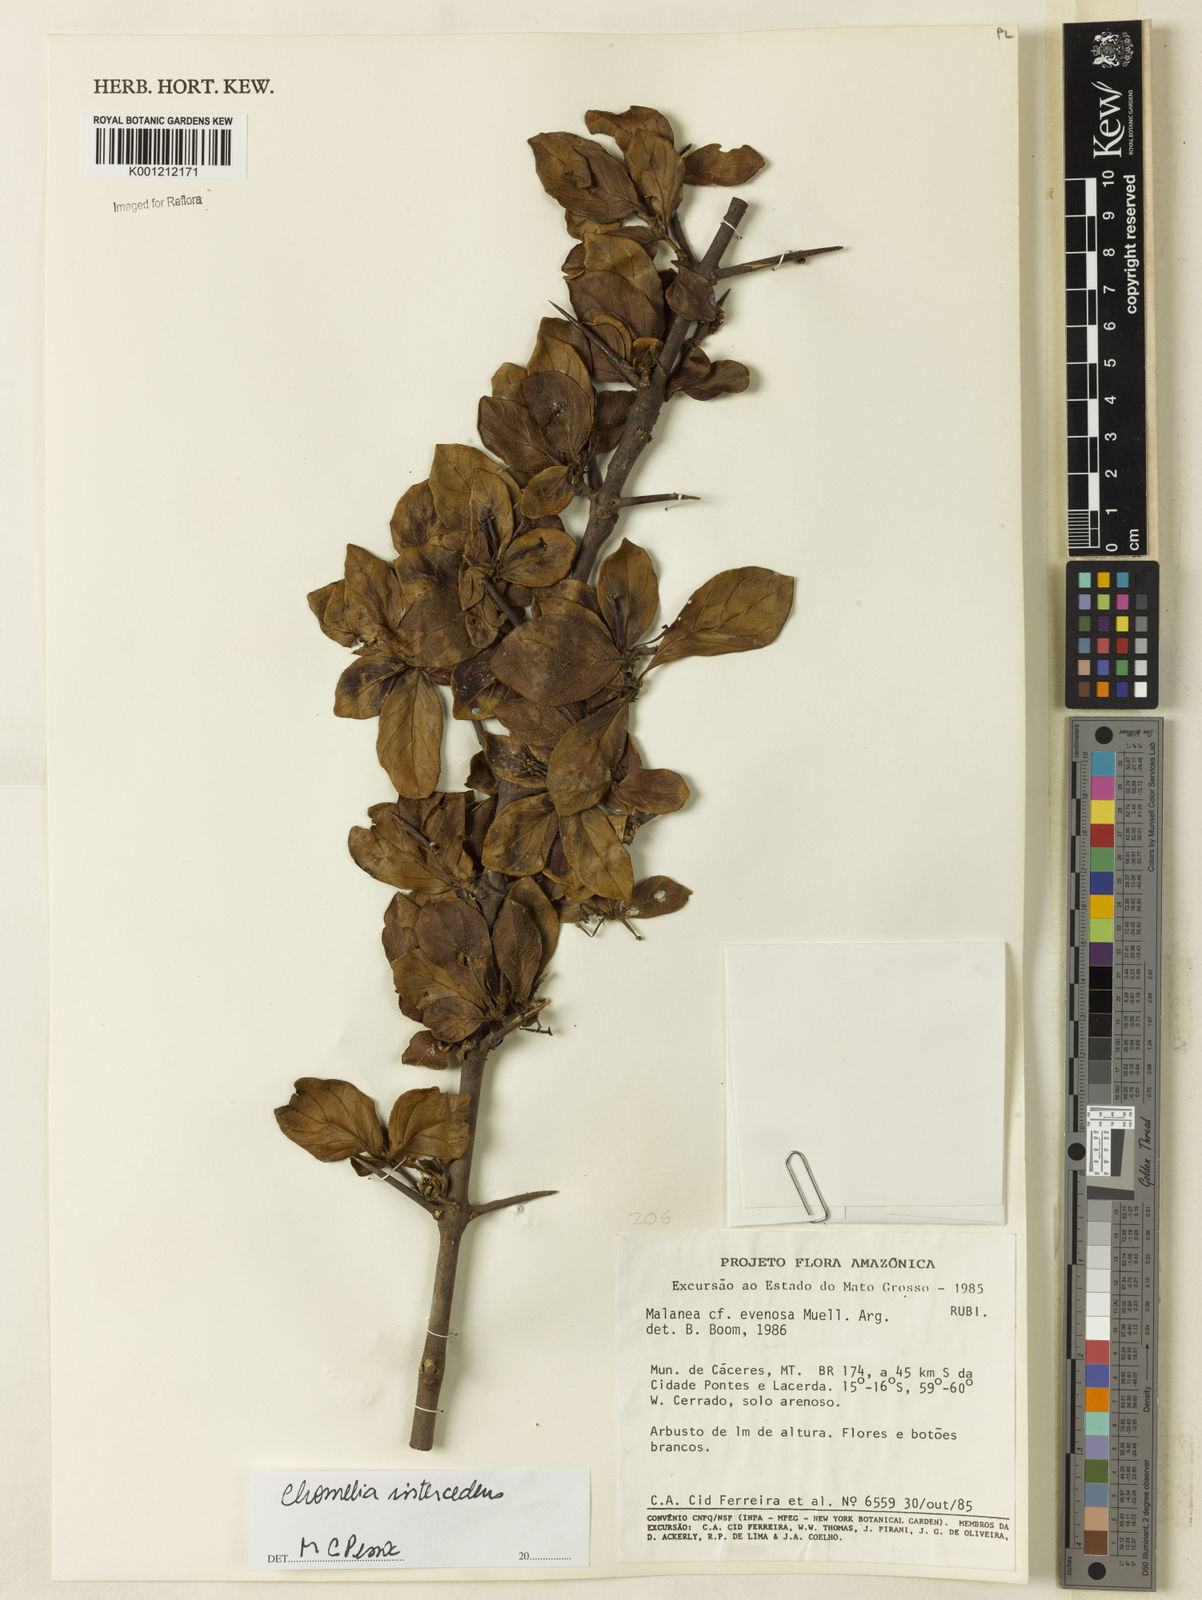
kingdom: Plantae
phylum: Tracheophyta
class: Magnoliopsida
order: Gentianales
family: Rubiaceae
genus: Chomelia
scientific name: Chomelia
